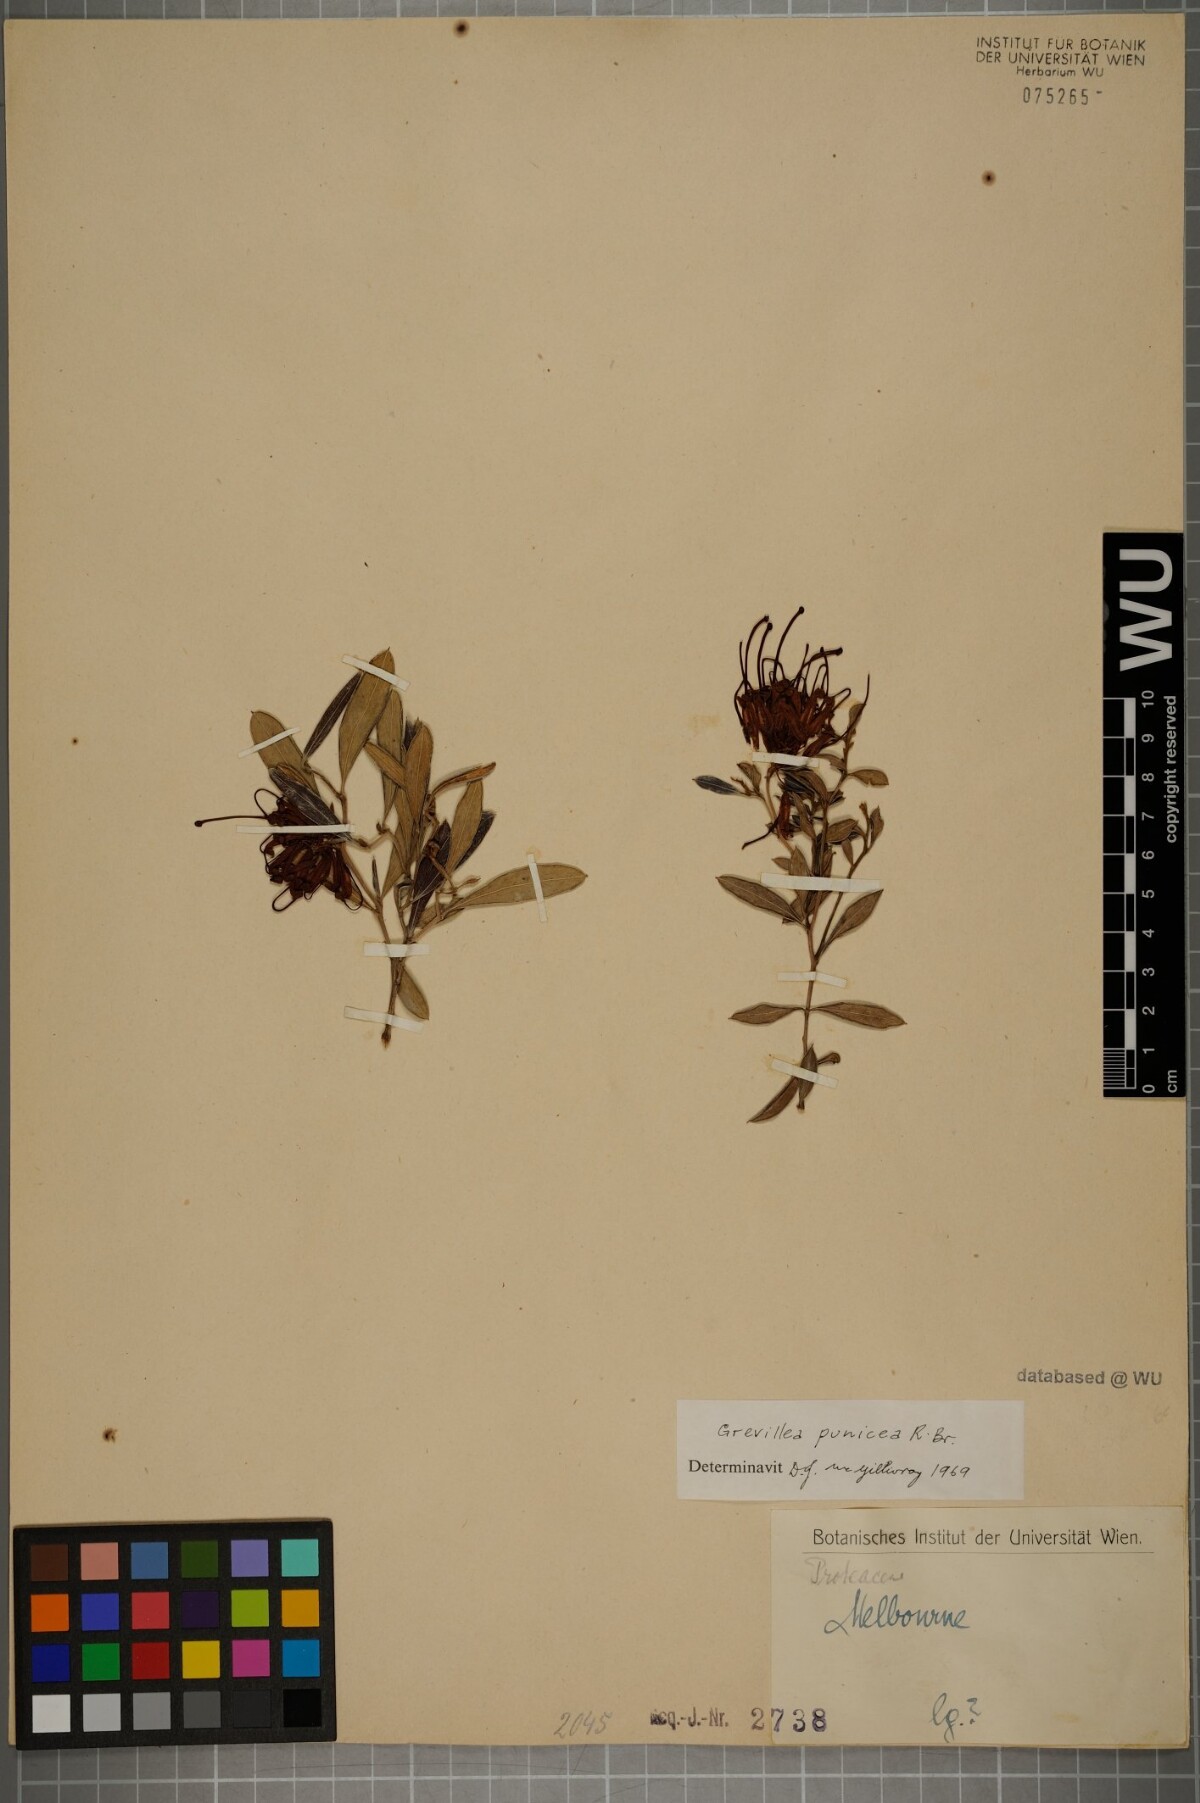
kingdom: Plantae
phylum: Tracheophyta
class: Magnoliopsida
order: Proteales
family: Proteaceae
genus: Grevillea
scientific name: Grevillea speciosa
